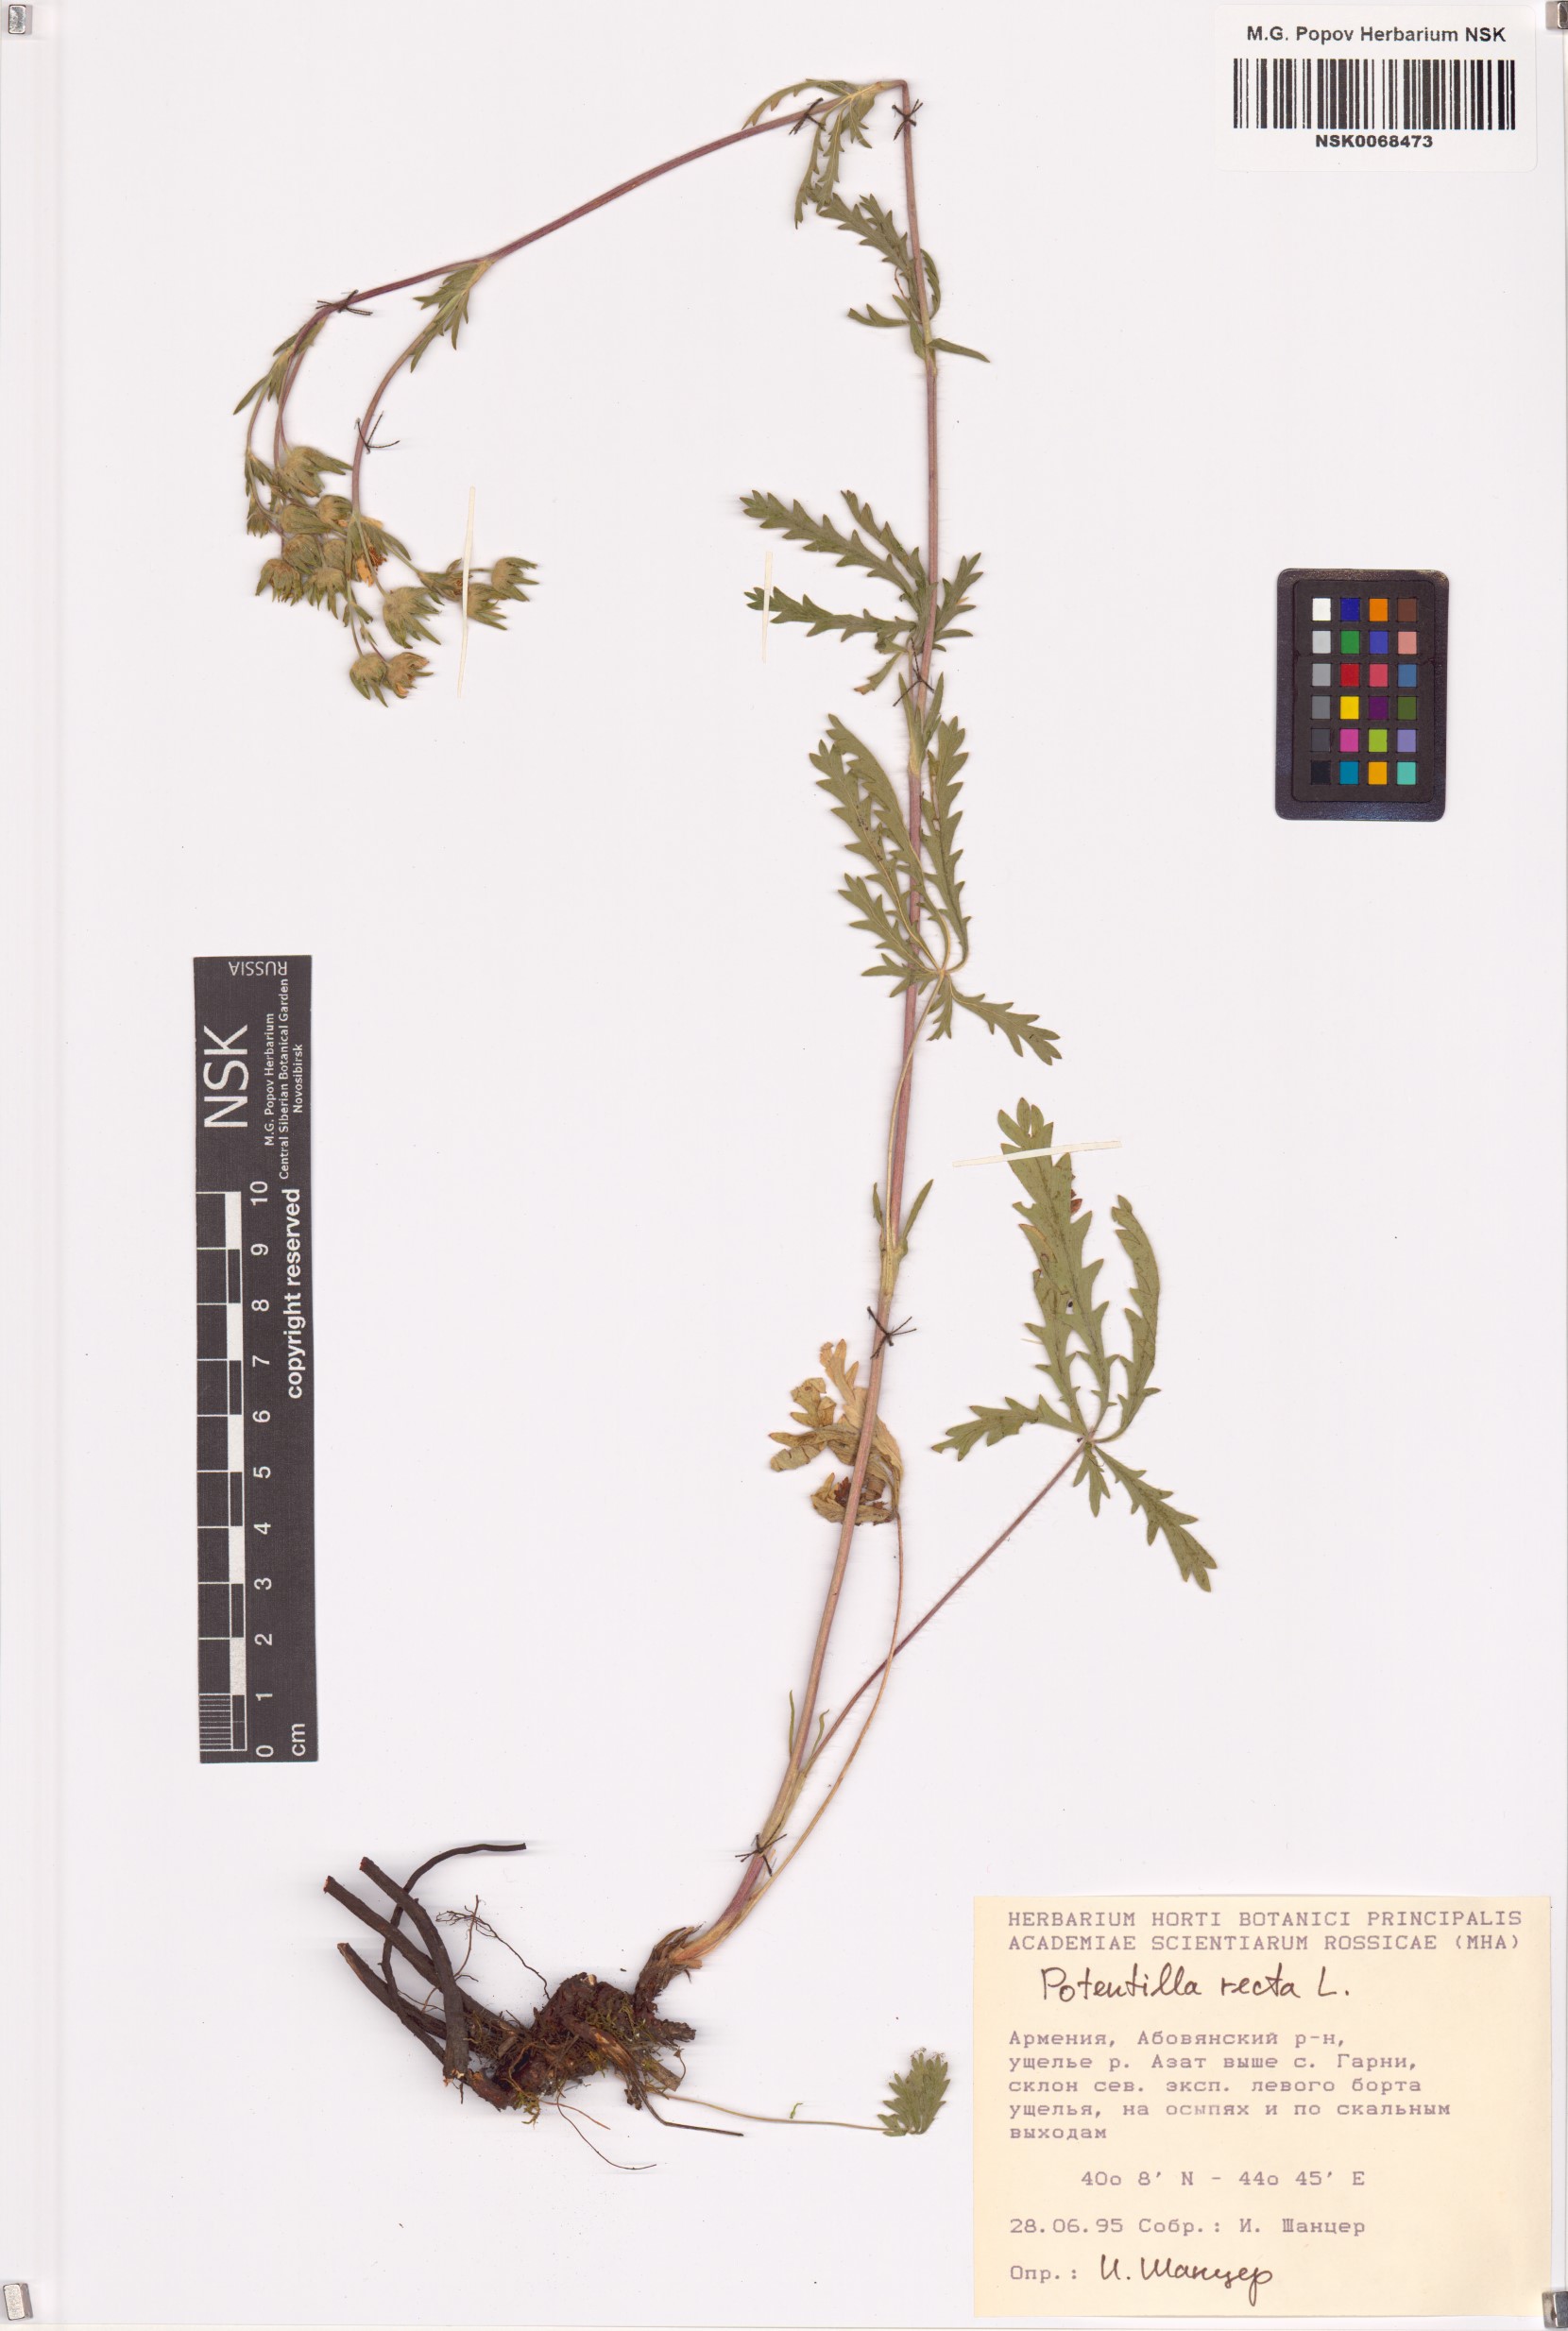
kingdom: Plantae
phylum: Tracheophyta
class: Magnoliopsida
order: Rosales
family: Rosaceae
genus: Potentilla
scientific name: Potentilla recta
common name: Sulphur cinquefoil
